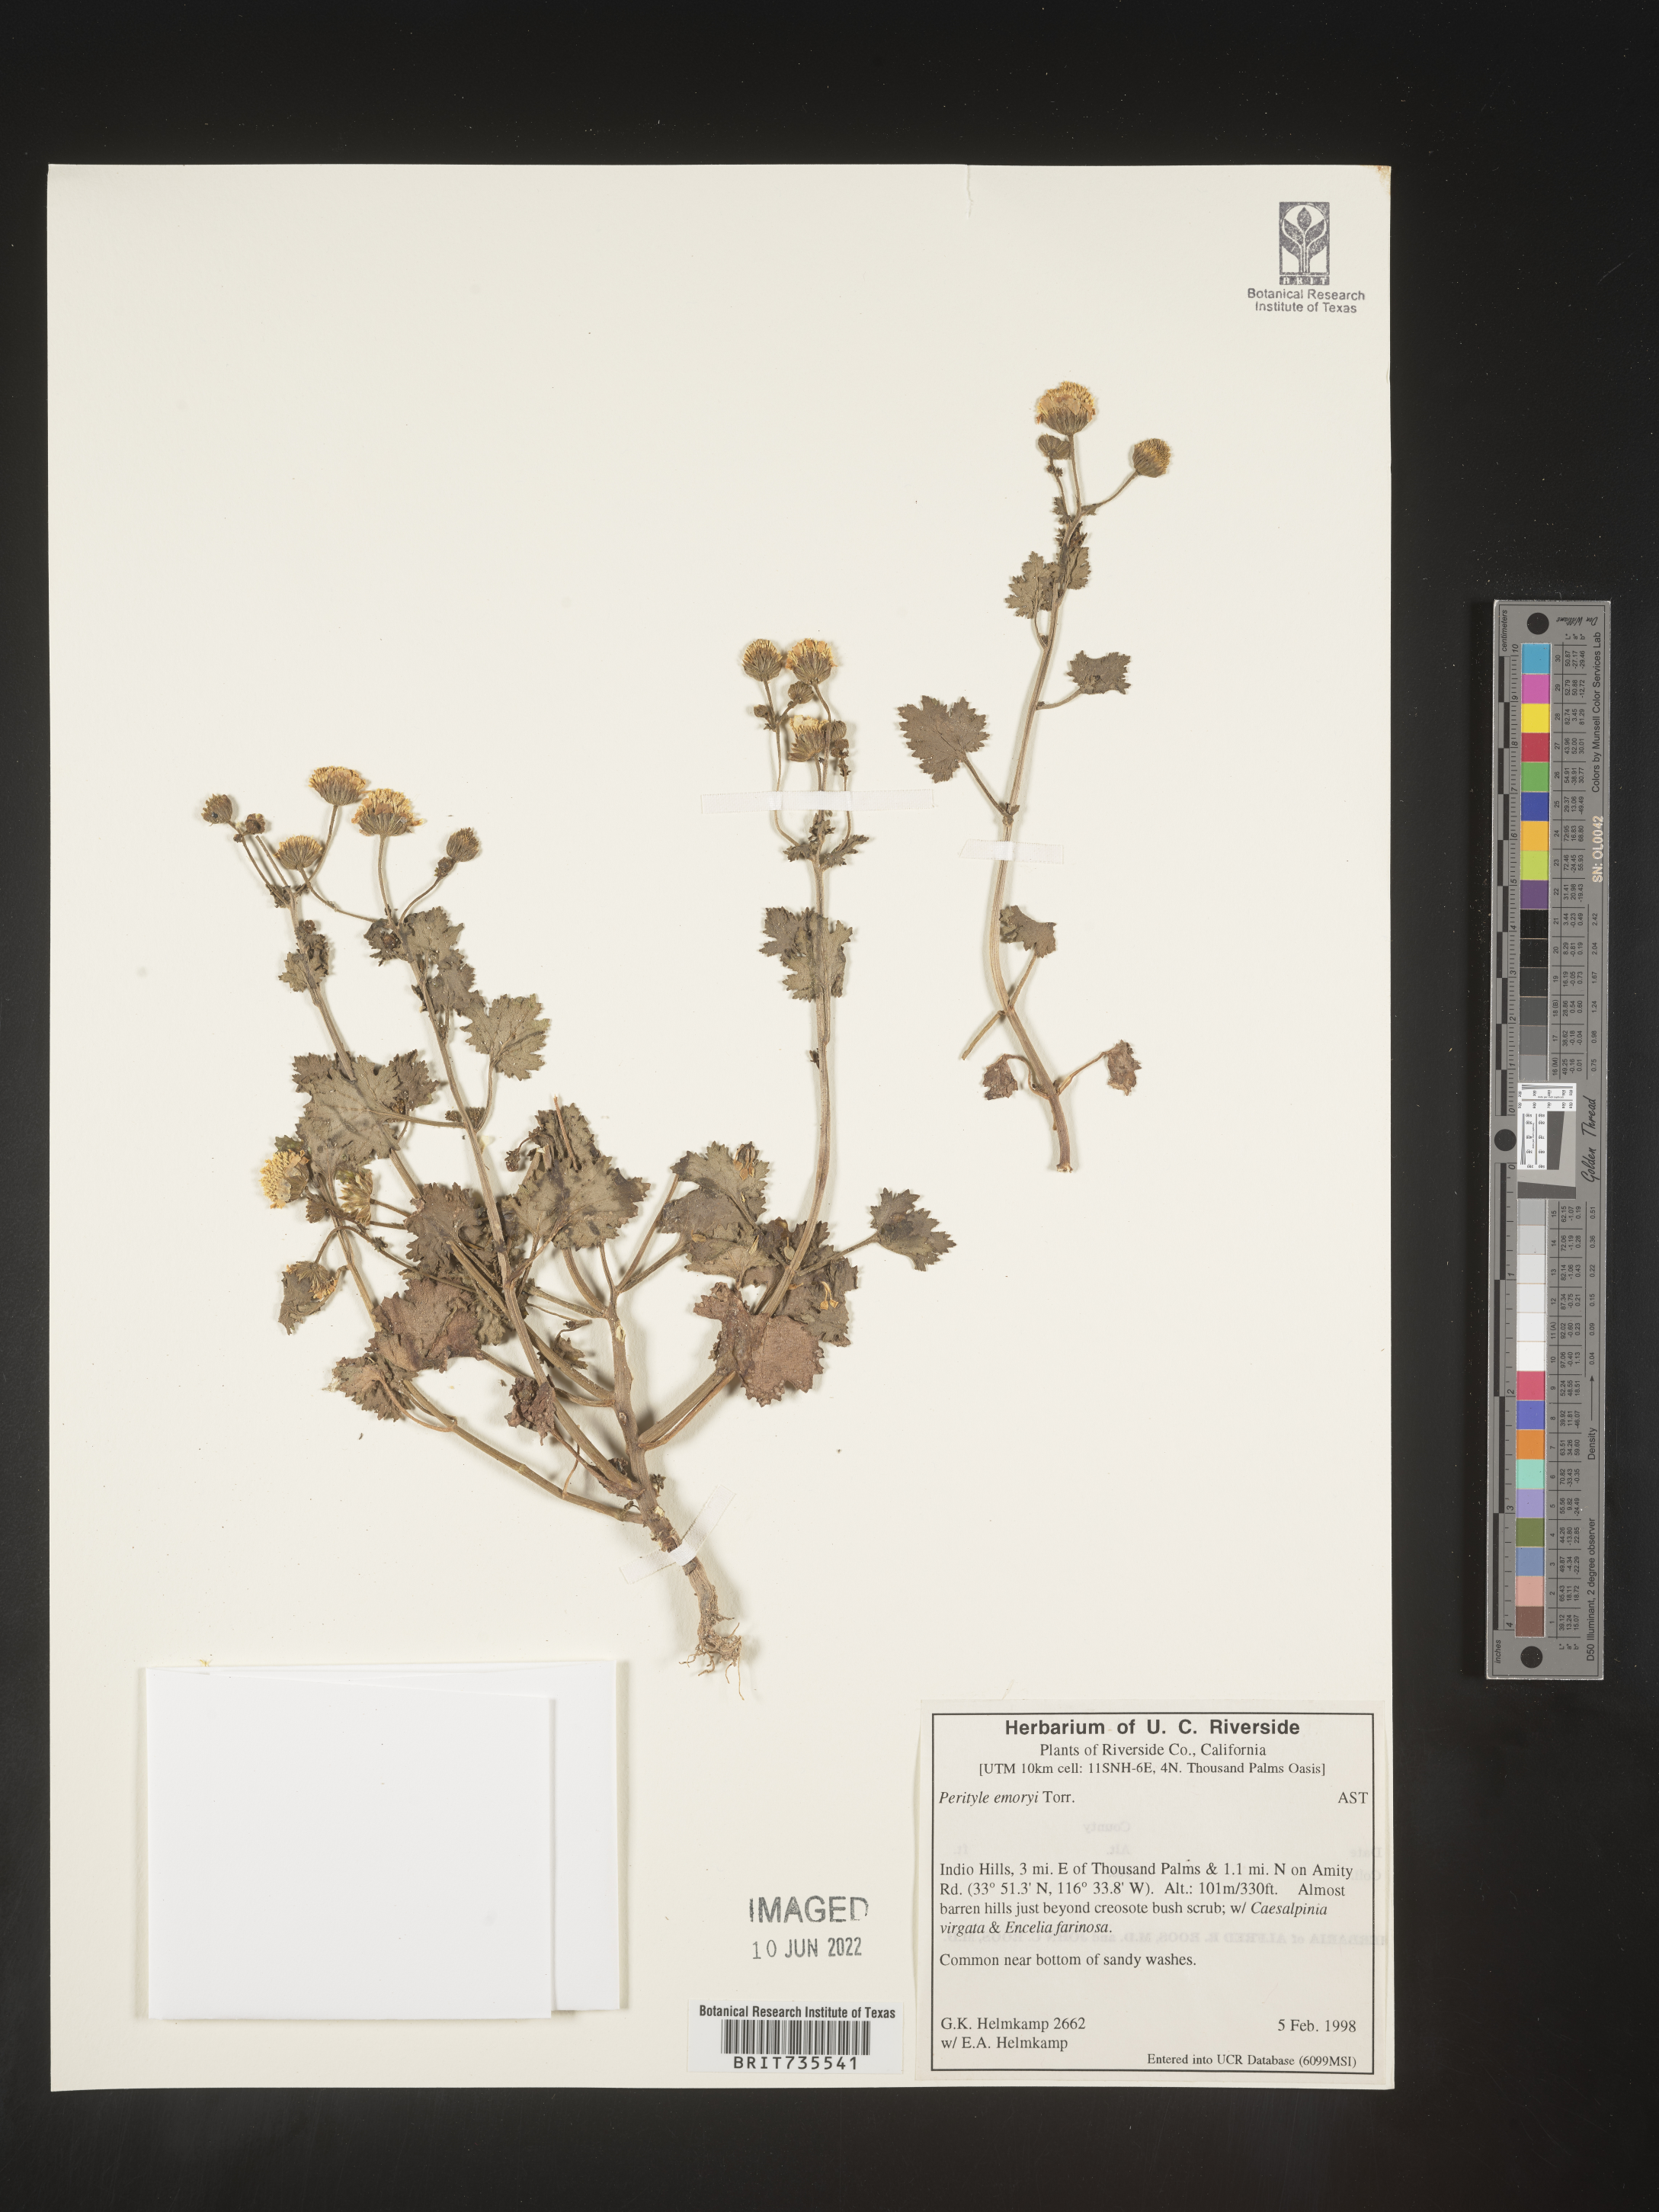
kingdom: Plantae
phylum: Tracheophyta
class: Magnoliopsida
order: Asterales
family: Asteraceae
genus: Perityle
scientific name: Perityle
